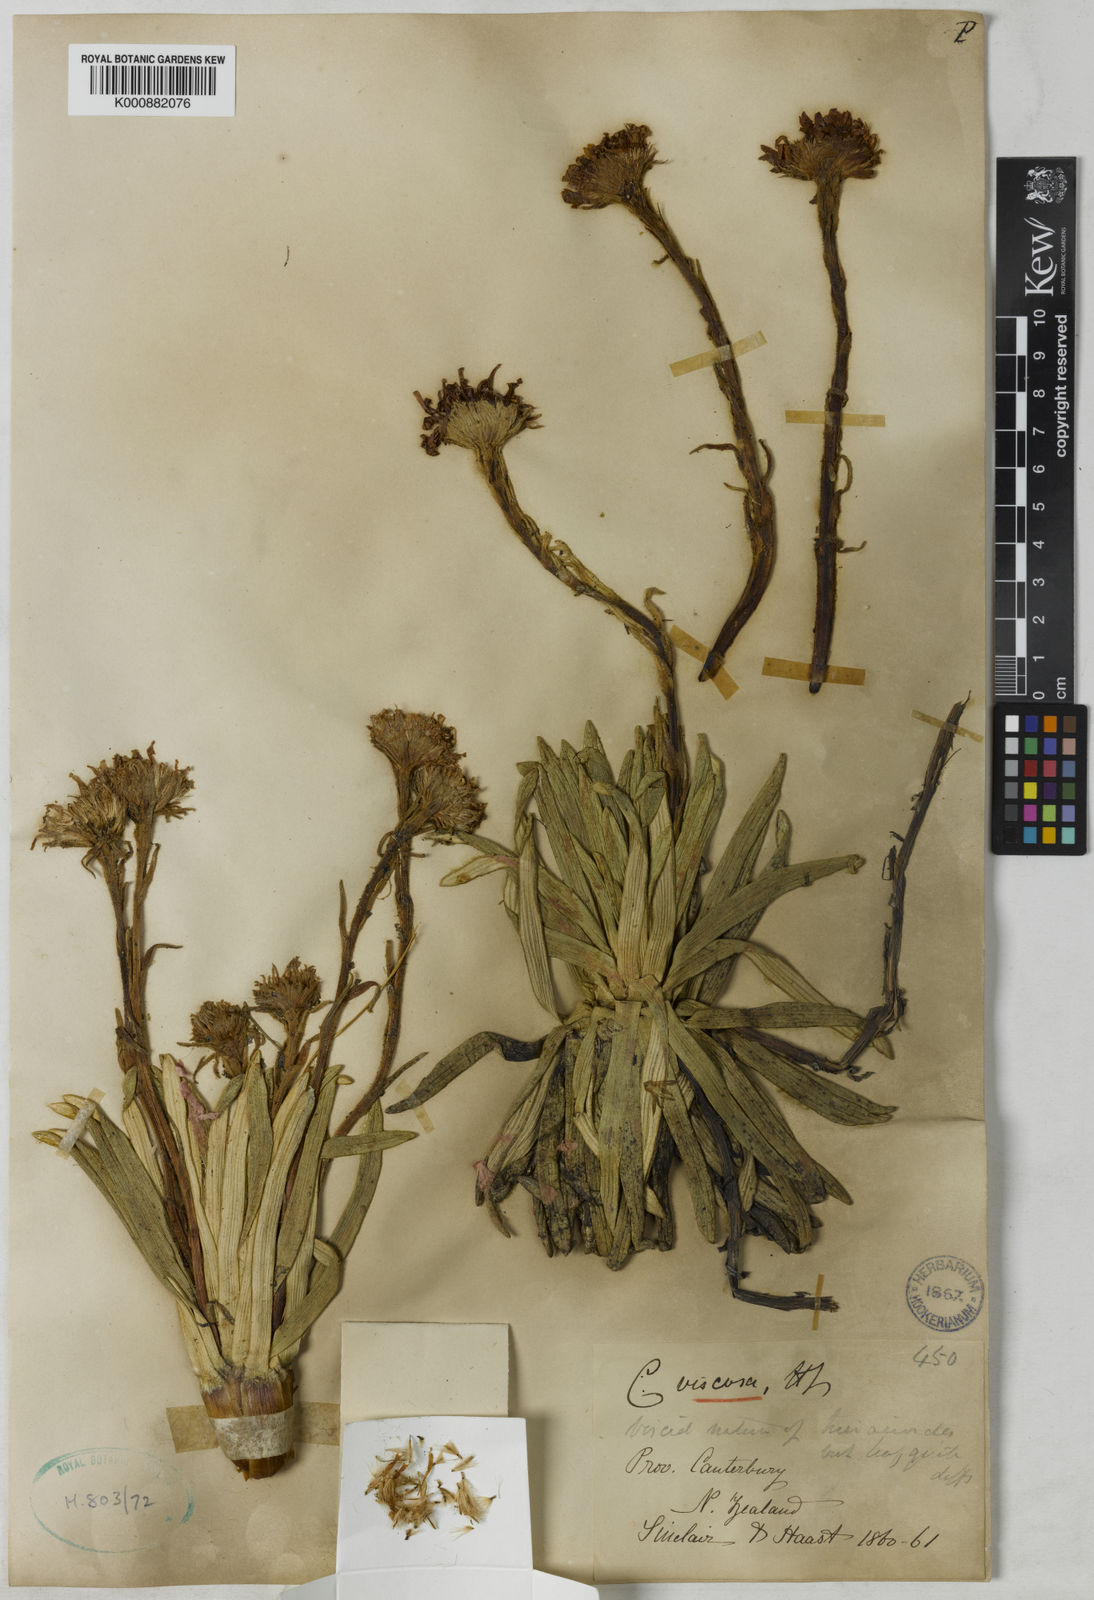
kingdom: Plantae
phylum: Tracheophyta
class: Magnoliopsida
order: Asterales
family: Asteraceae
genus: Celmisia
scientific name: Celmisia viscosa
